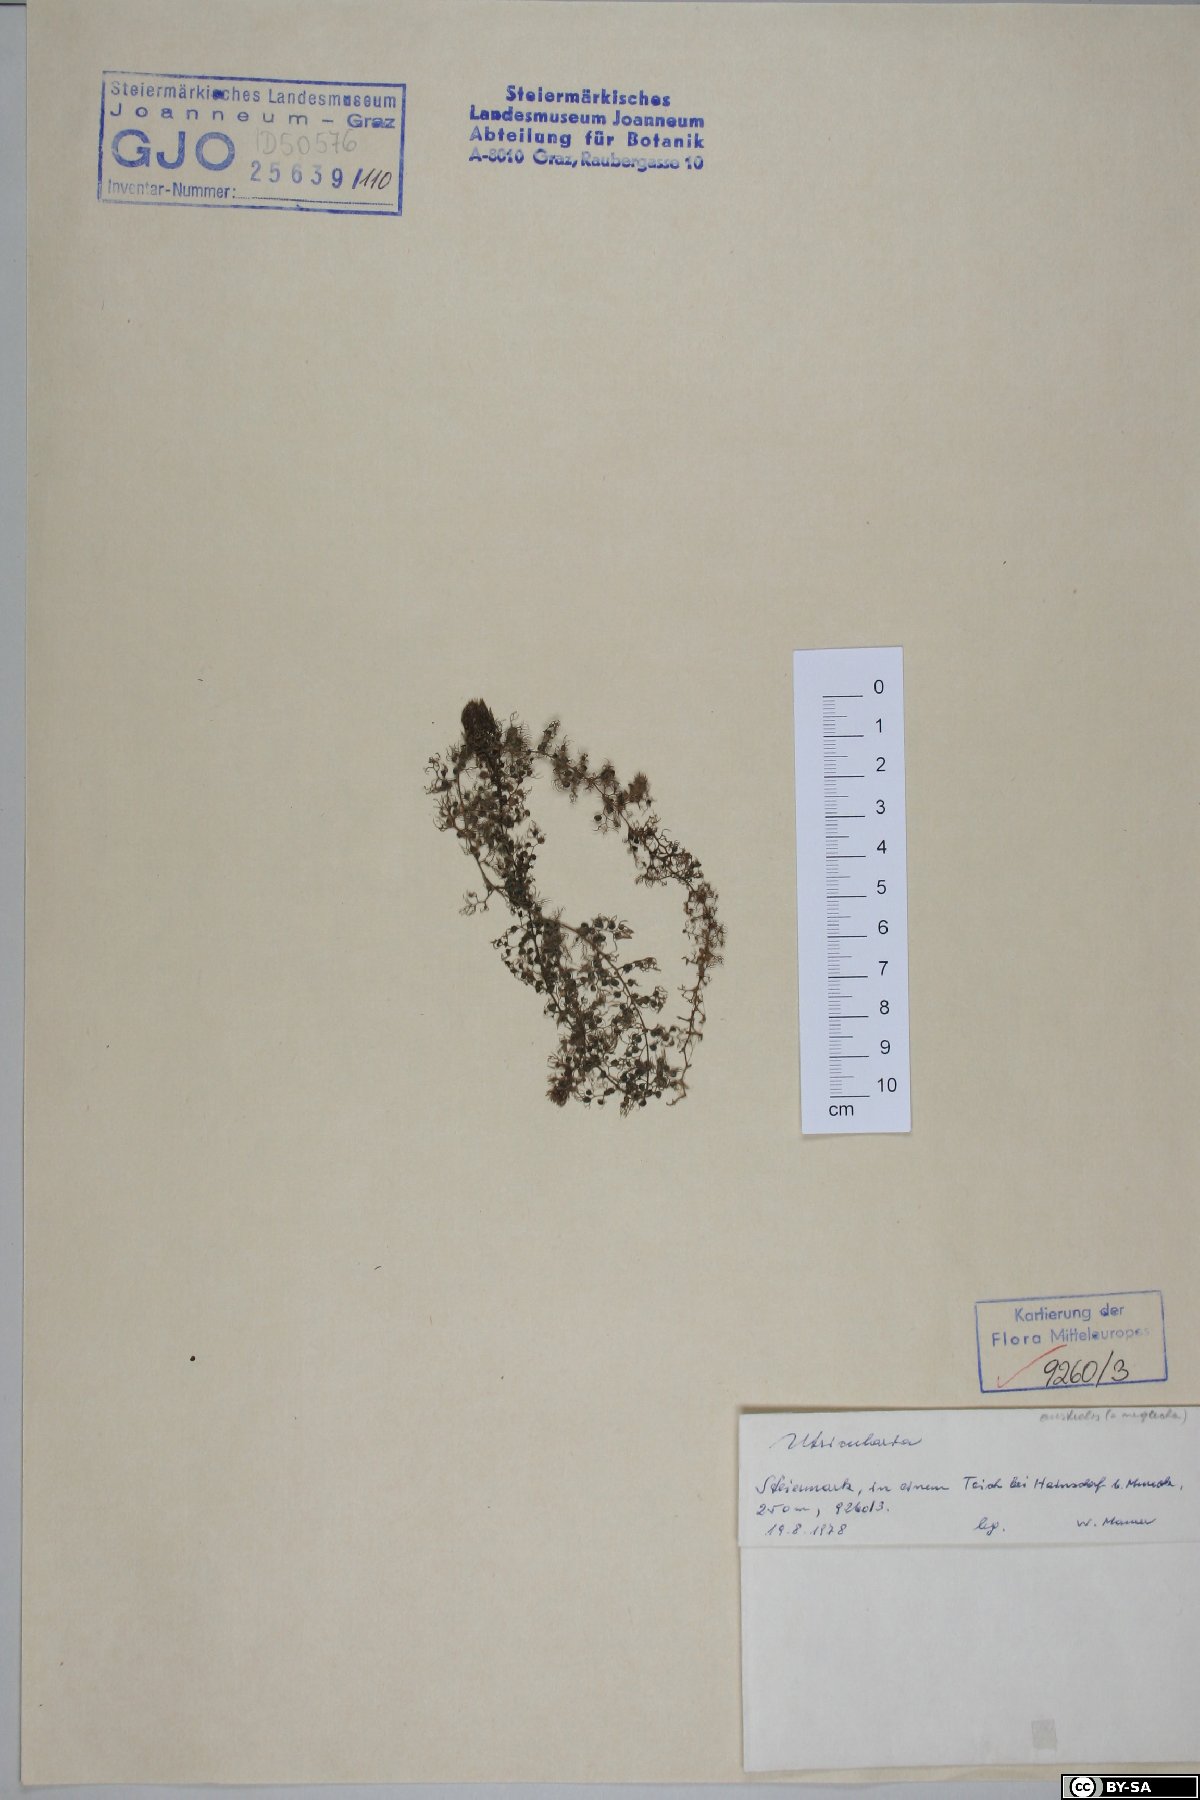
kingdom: Plantae
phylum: Tracheophyta
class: Magnoliopsida
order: Lamiales
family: Lentibulariaceae
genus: Utricularia
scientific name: Utricularia
